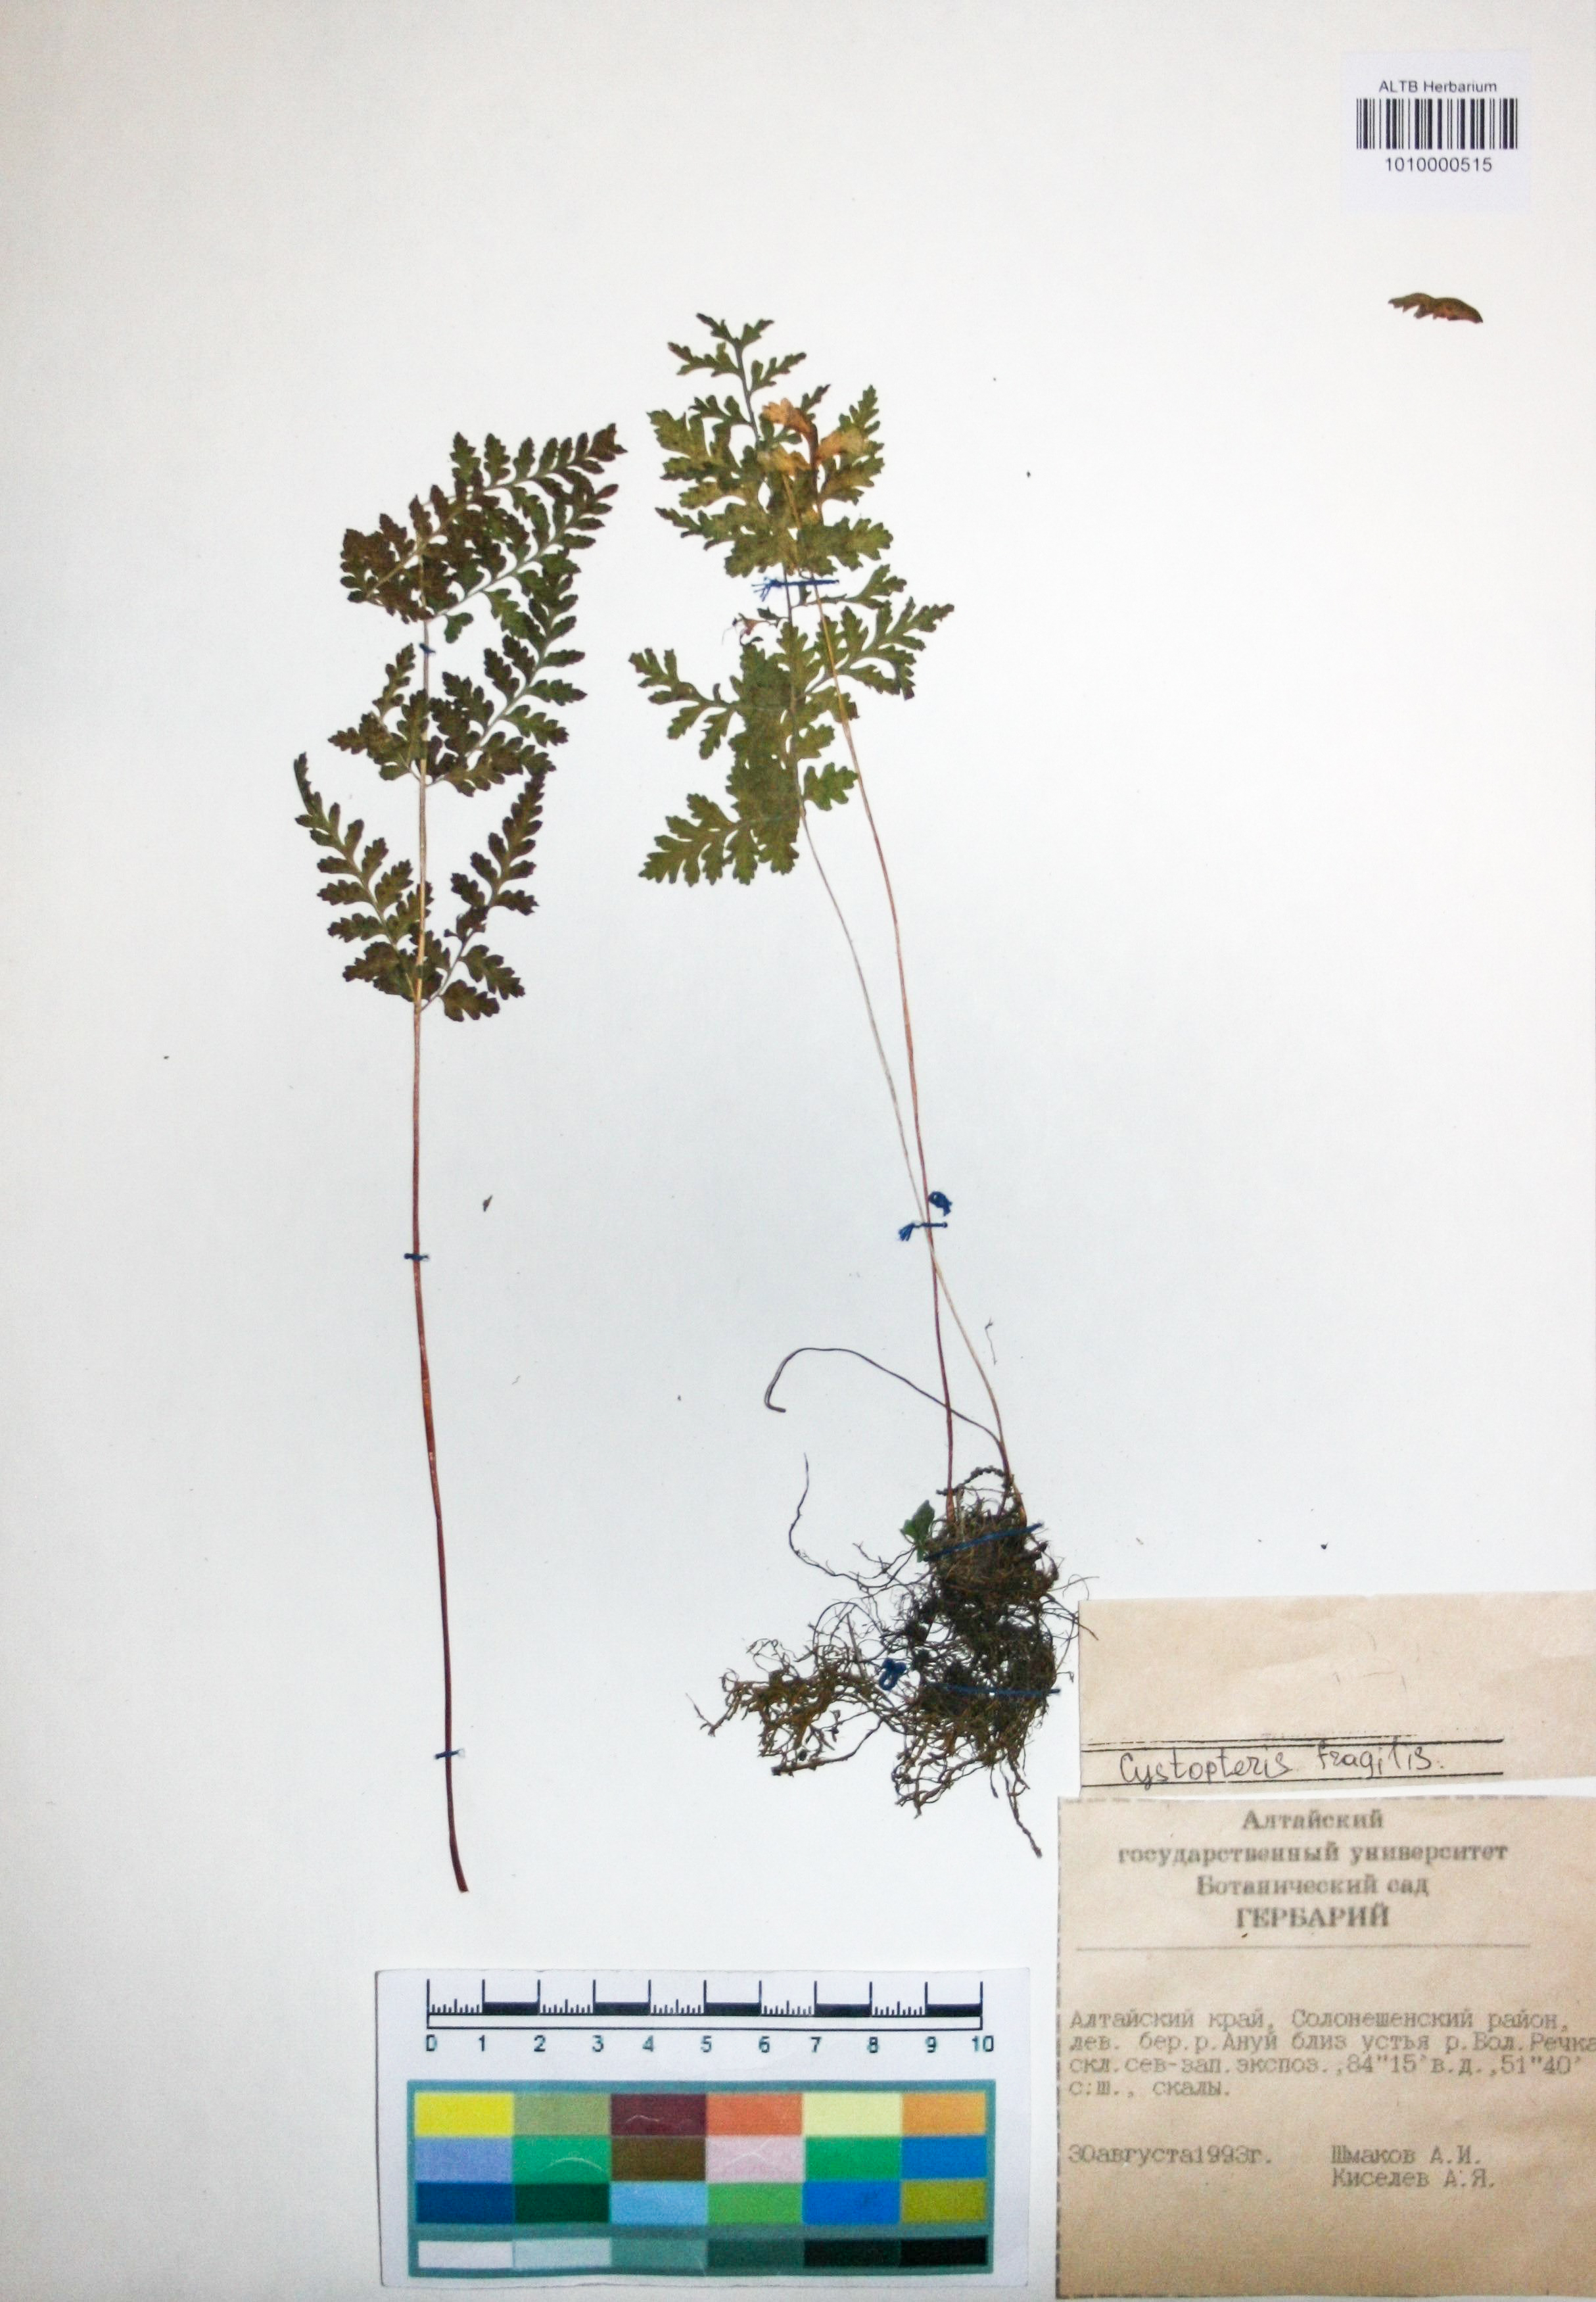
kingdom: Plantae
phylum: Tracheophyta
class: Polypodiopsida
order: Polypodiales
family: Cystopteridaceae
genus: Cystopteris
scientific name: Cystopteris fragilis
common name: Brittle bladder fern
